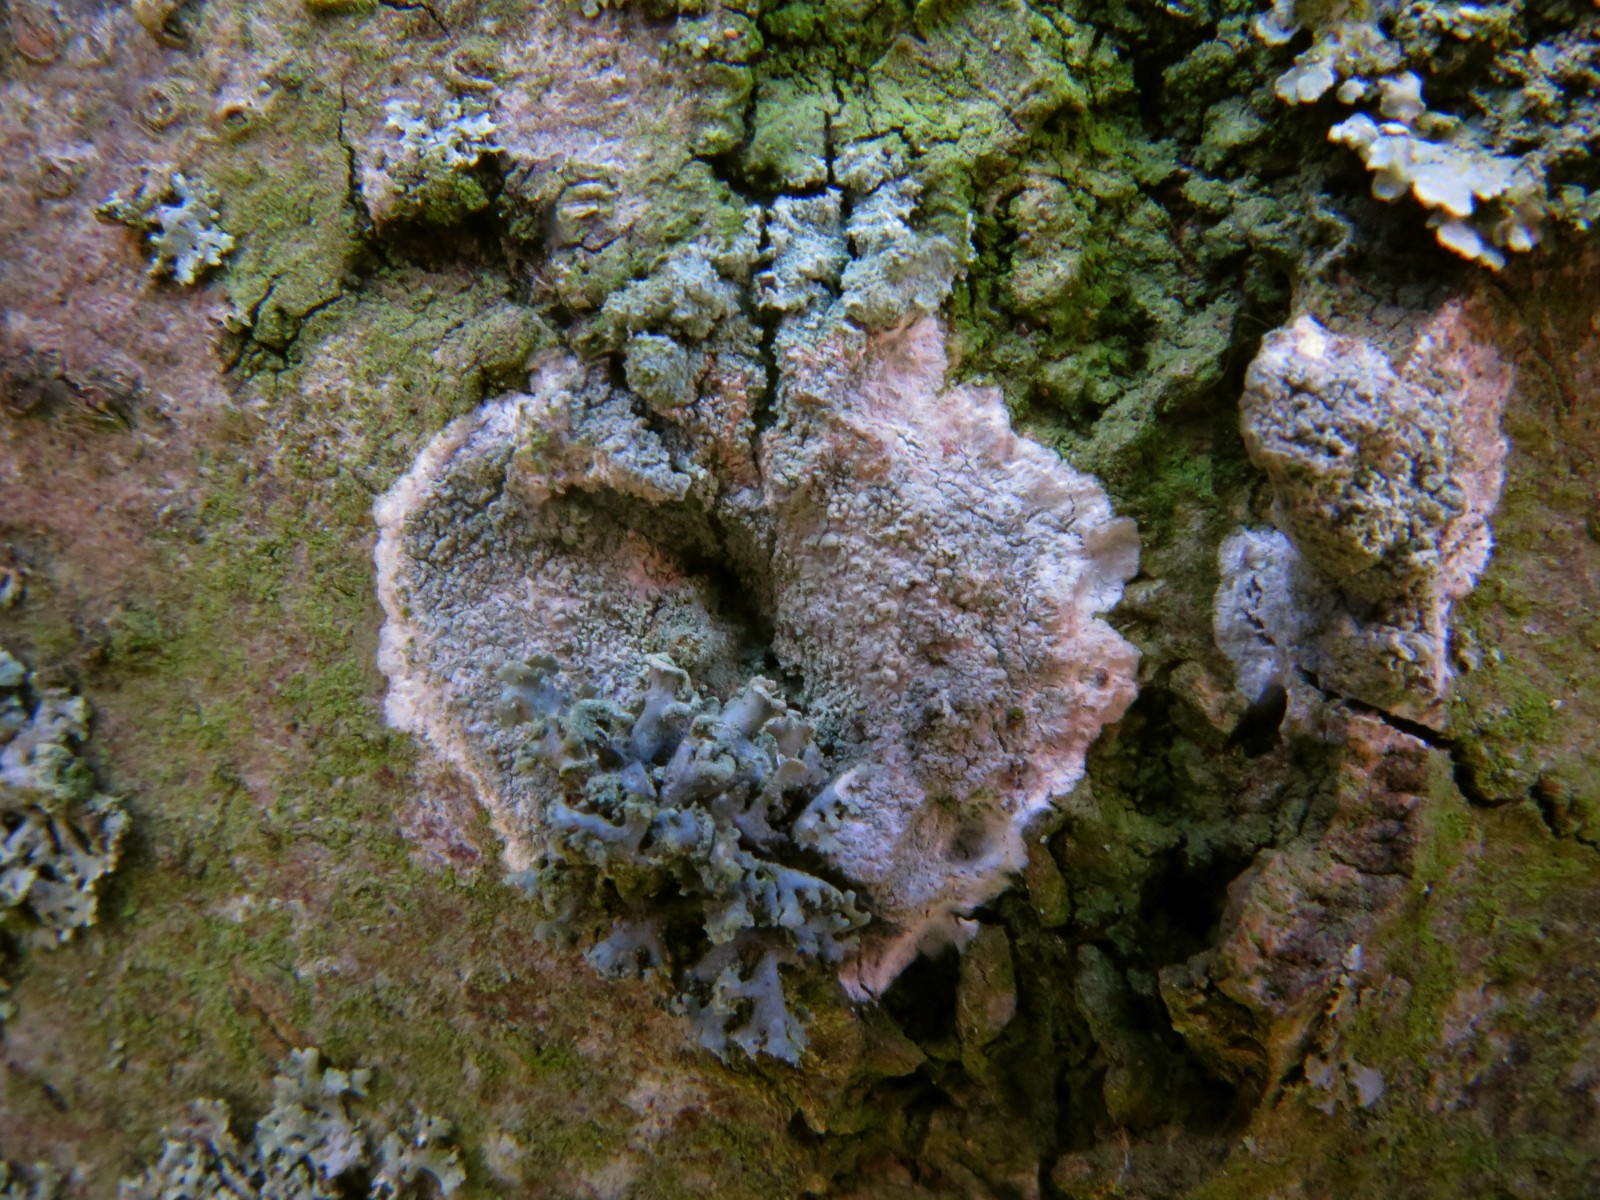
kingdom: Fungi
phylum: Ascomycota
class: Lecanoromycetes
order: Lecanorales
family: Haematommataceae
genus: Haematomma
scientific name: Haematomma ochroleucum
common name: gul trådkantlav
